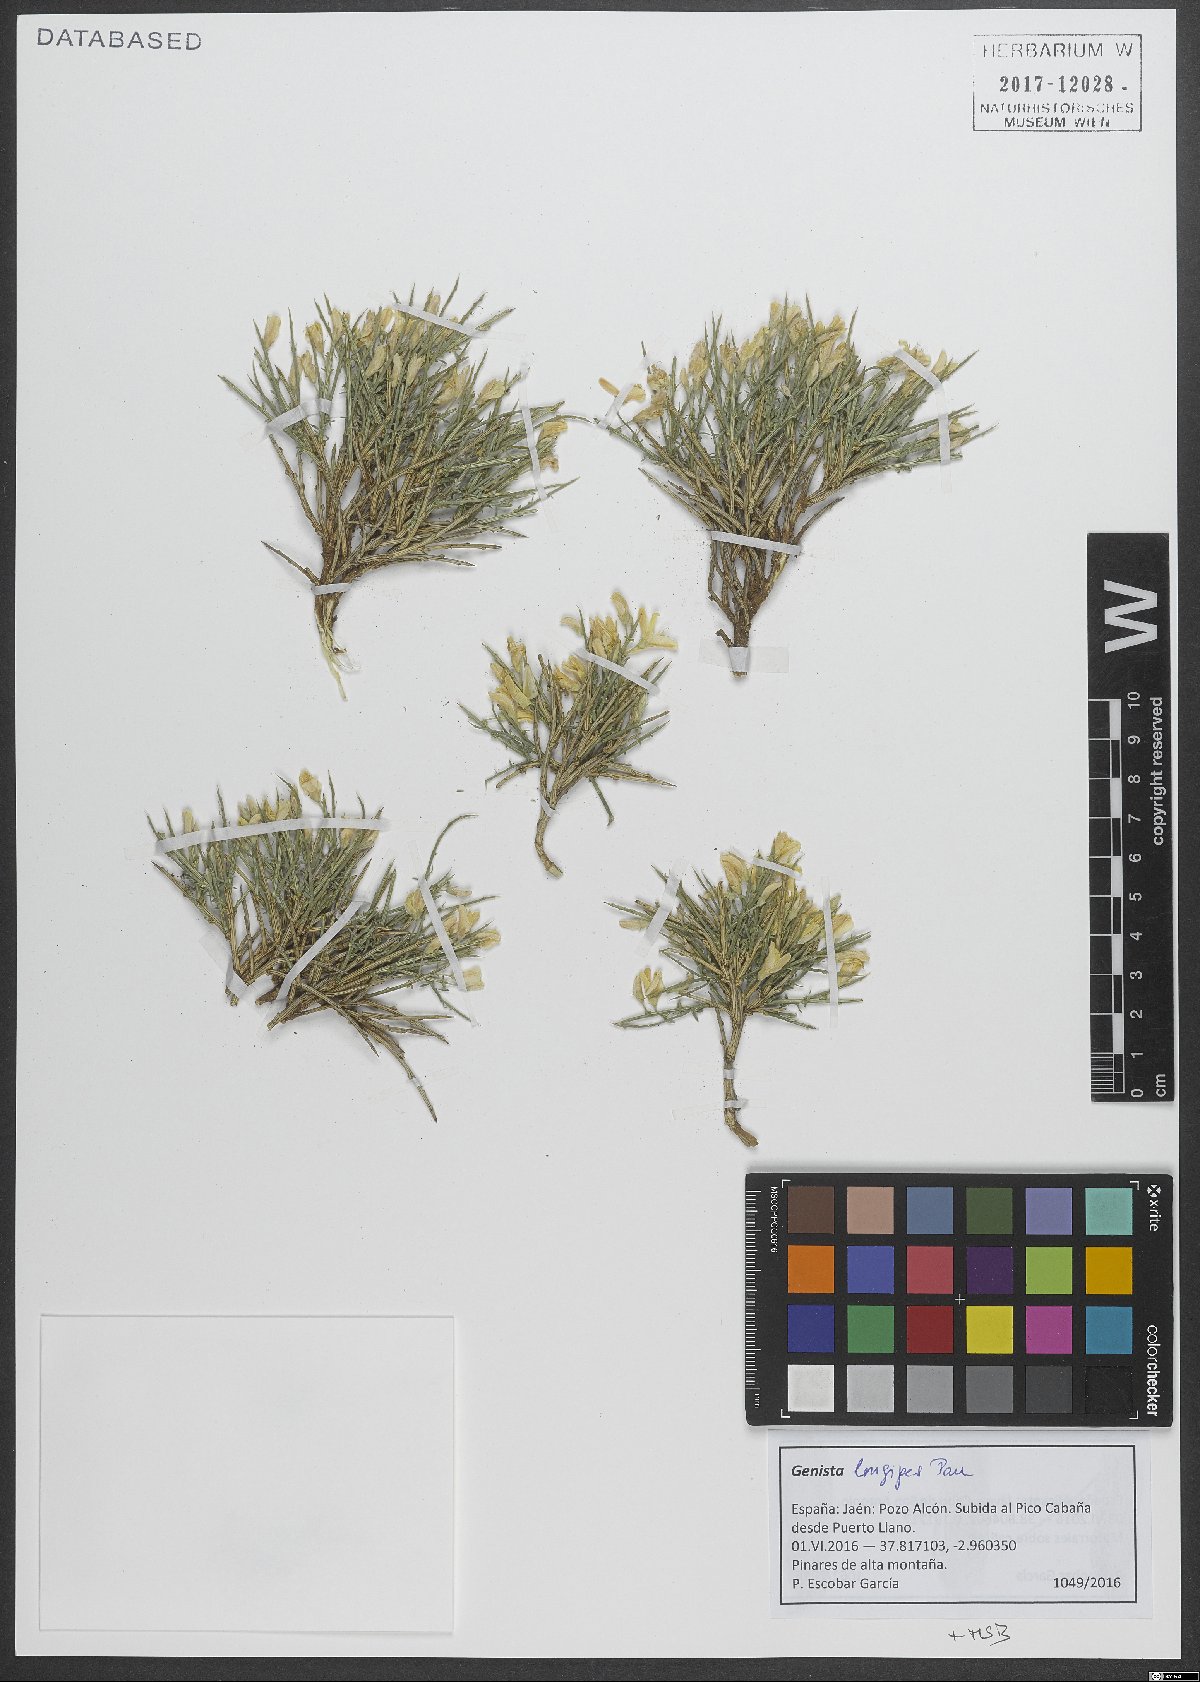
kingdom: Plantae
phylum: Tracheophyta
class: Magnoliopsida
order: Fabales
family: Fabaceae
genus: Genista
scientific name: Genista longipes
